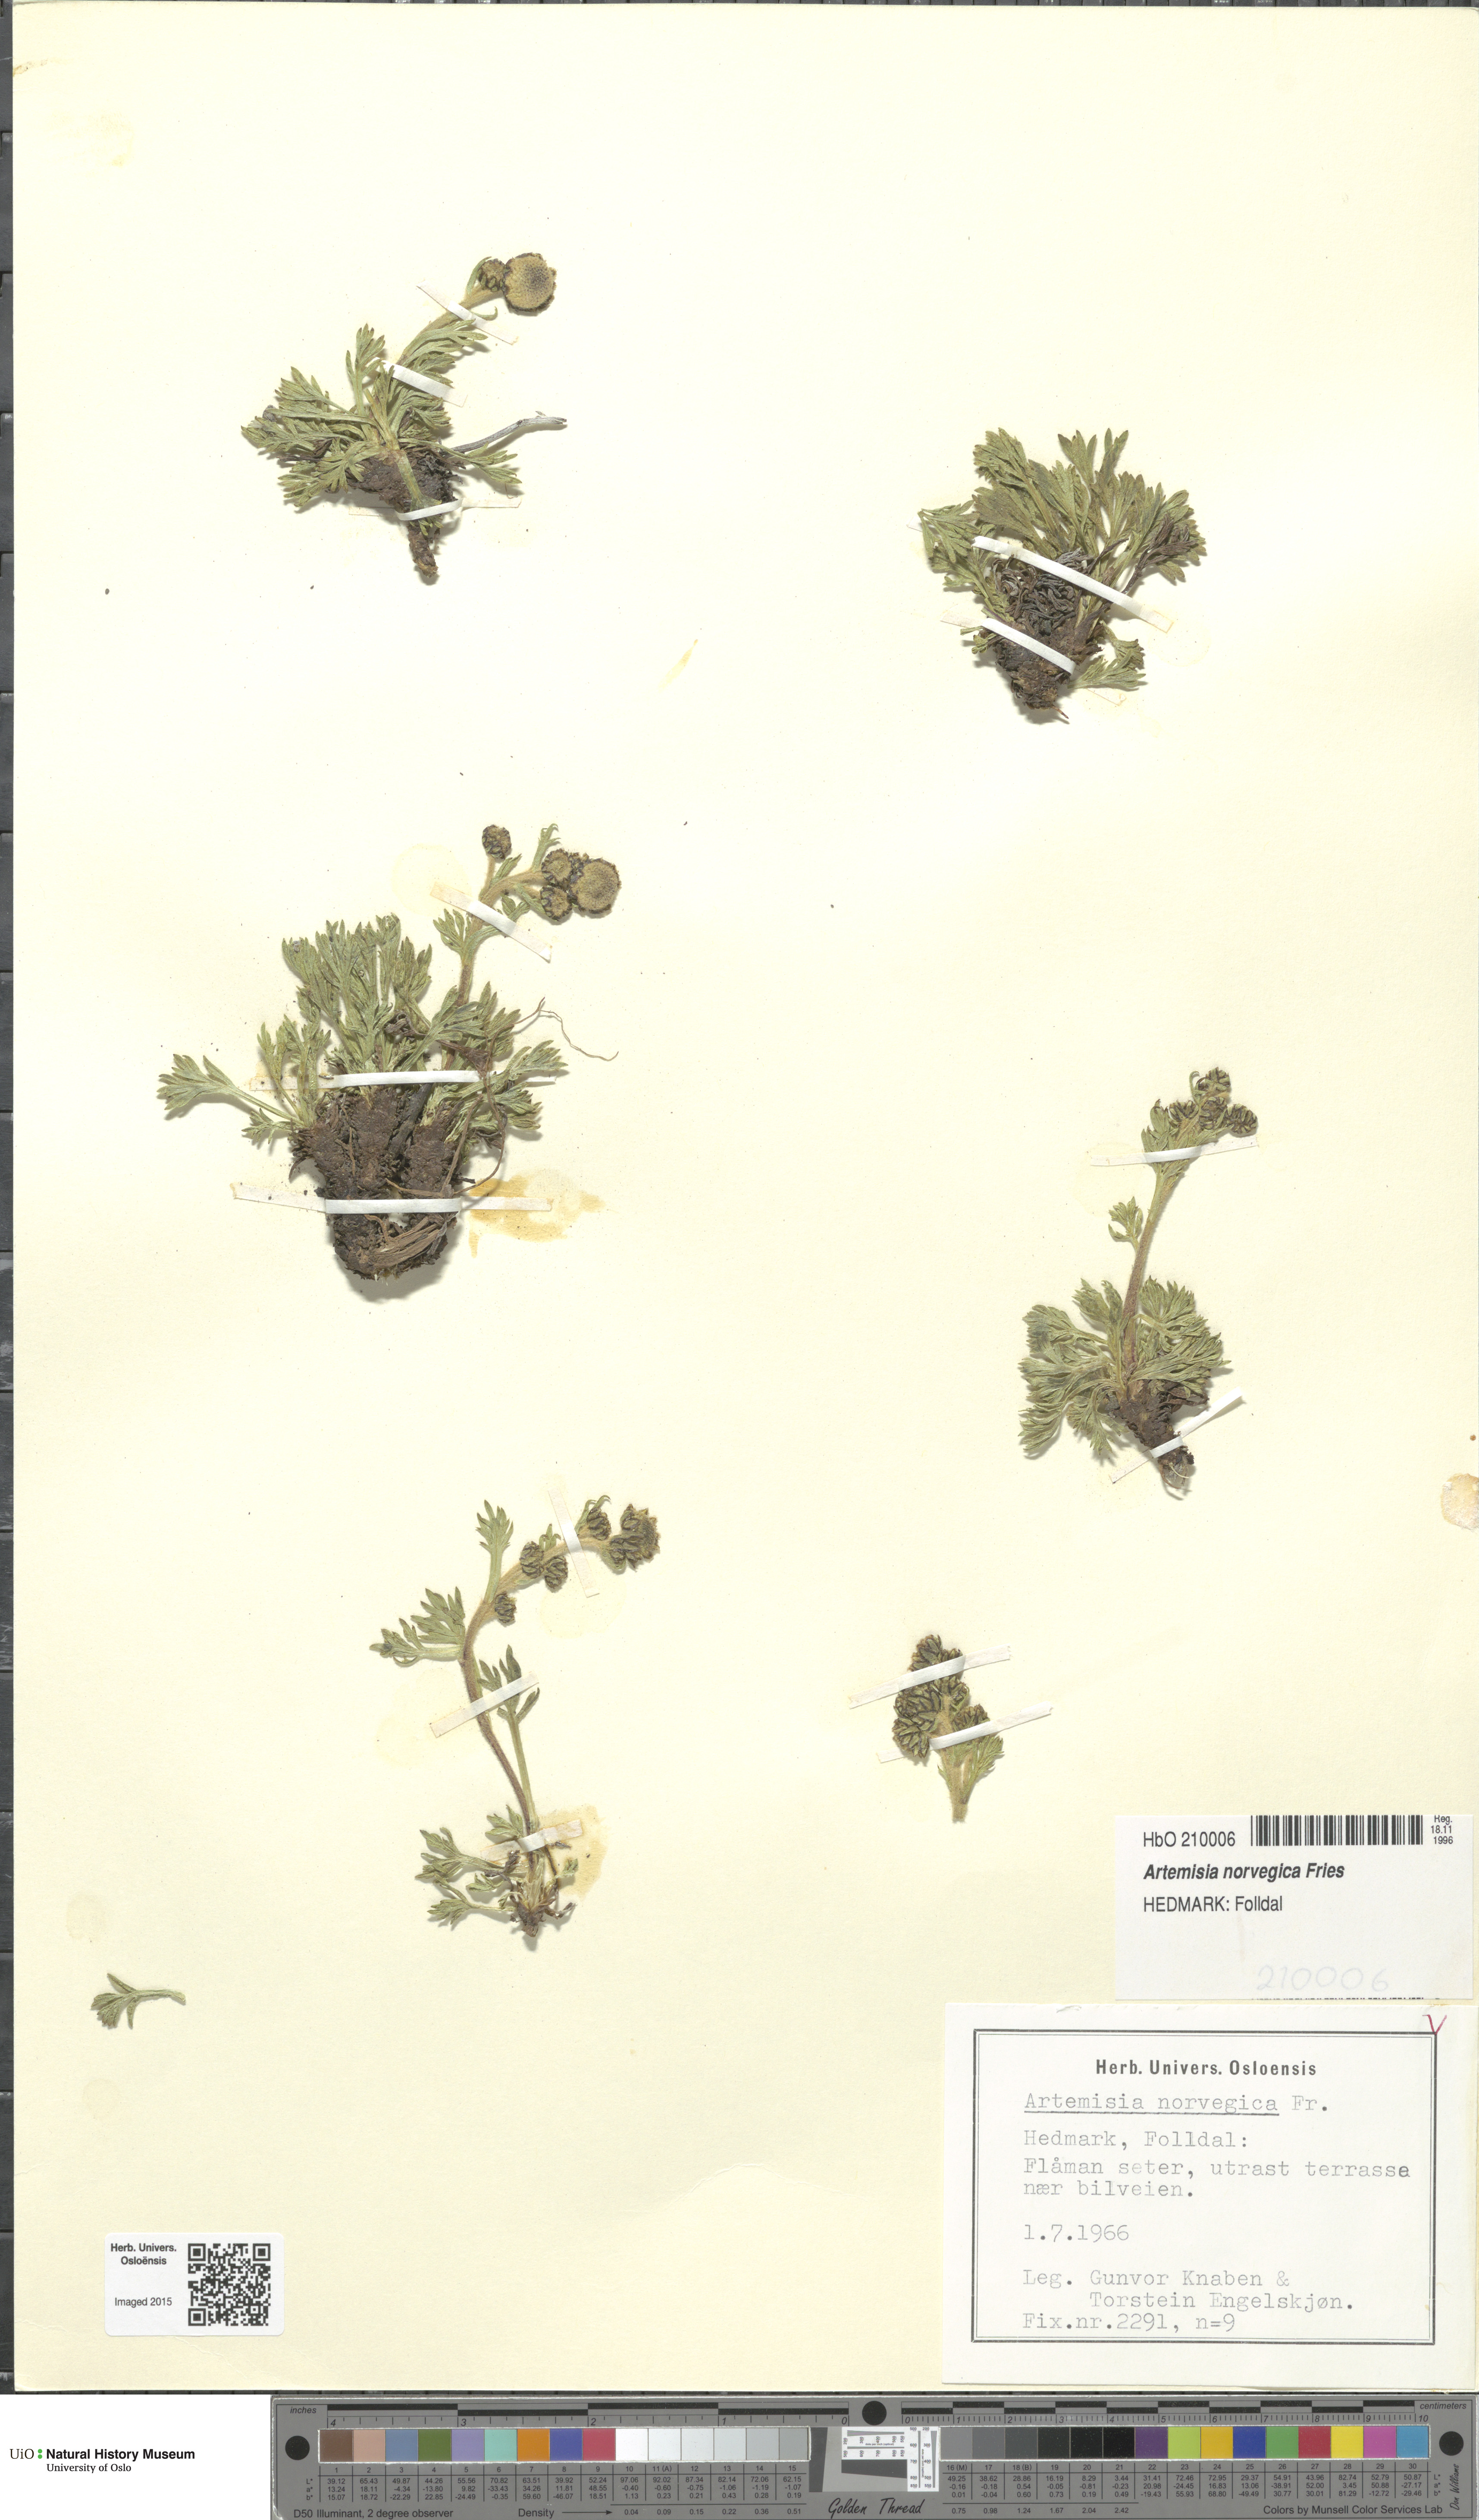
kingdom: Plantae
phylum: Tracheophyta
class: Magnoliopsida
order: Asterales
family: Asteraceae
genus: Artemisia
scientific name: Artemisia norvegica
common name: Norwegian mugwort
